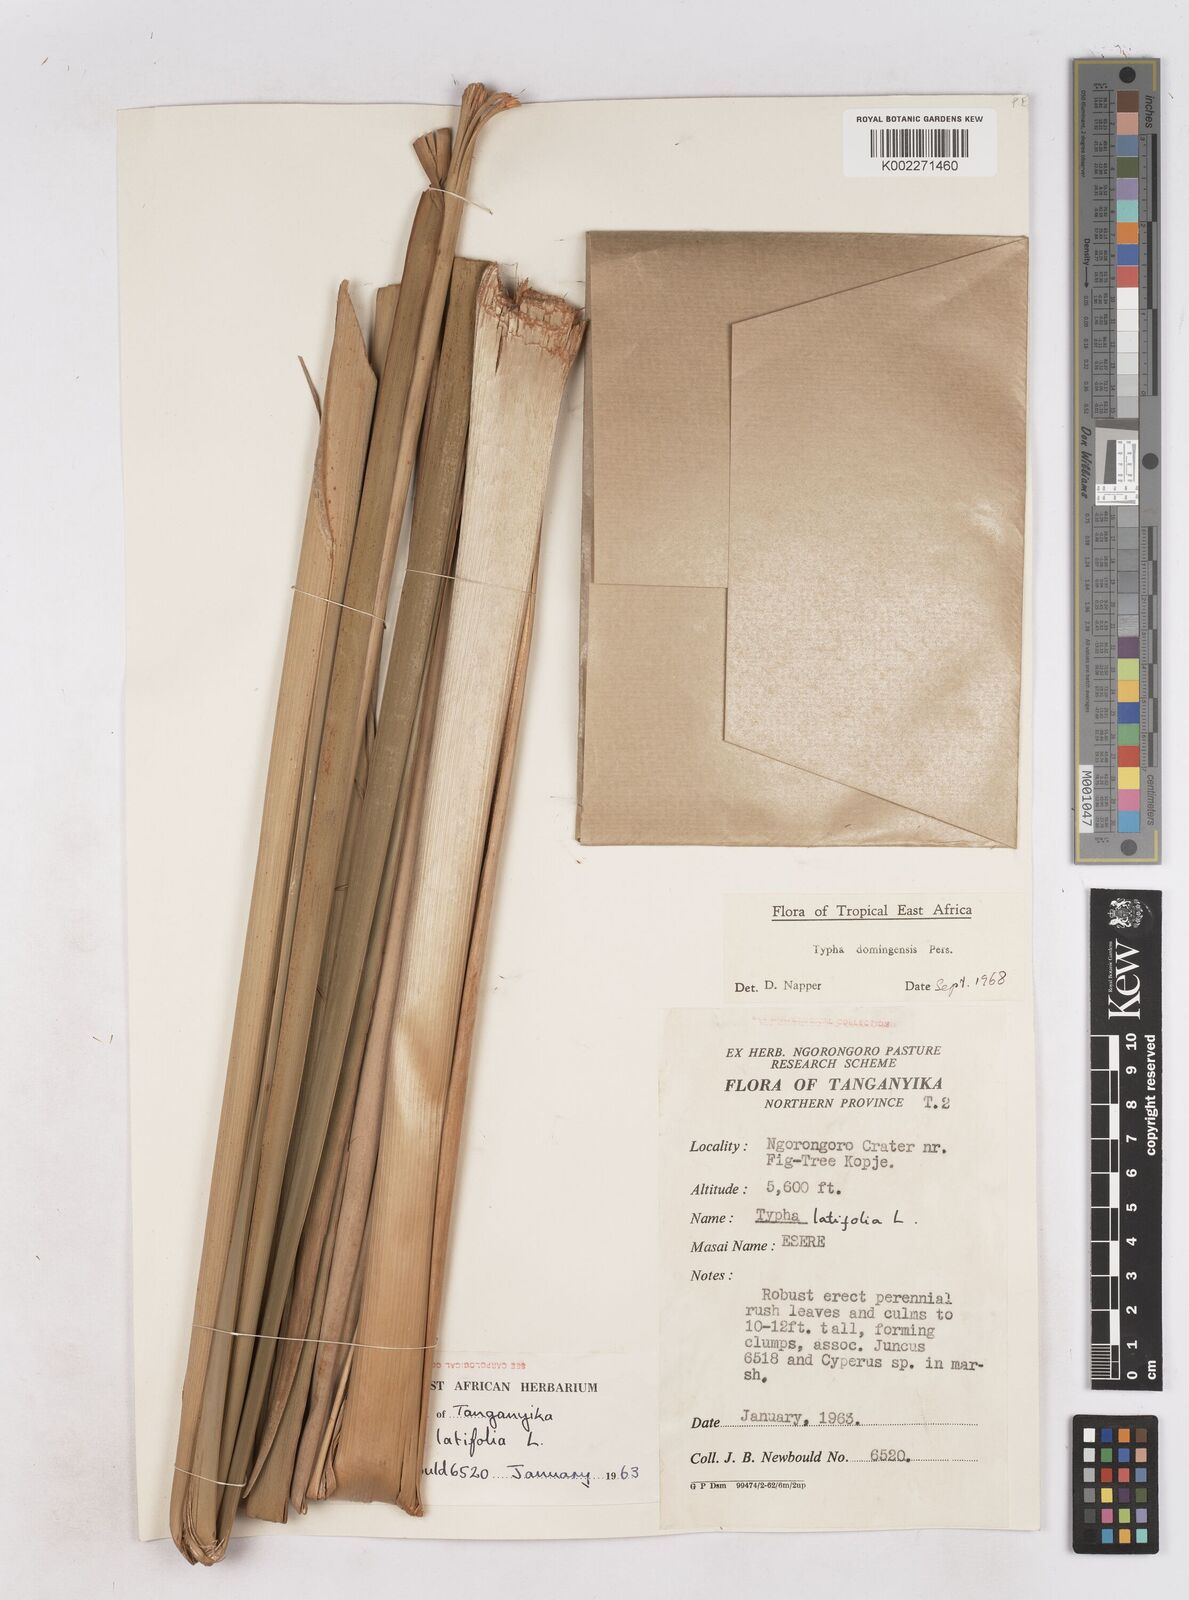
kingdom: Plantae
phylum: Tracheophyta
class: Liliopsida
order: Poales
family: Typhaceae
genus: Typha
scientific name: Typha domingensis
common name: Southern cattail
